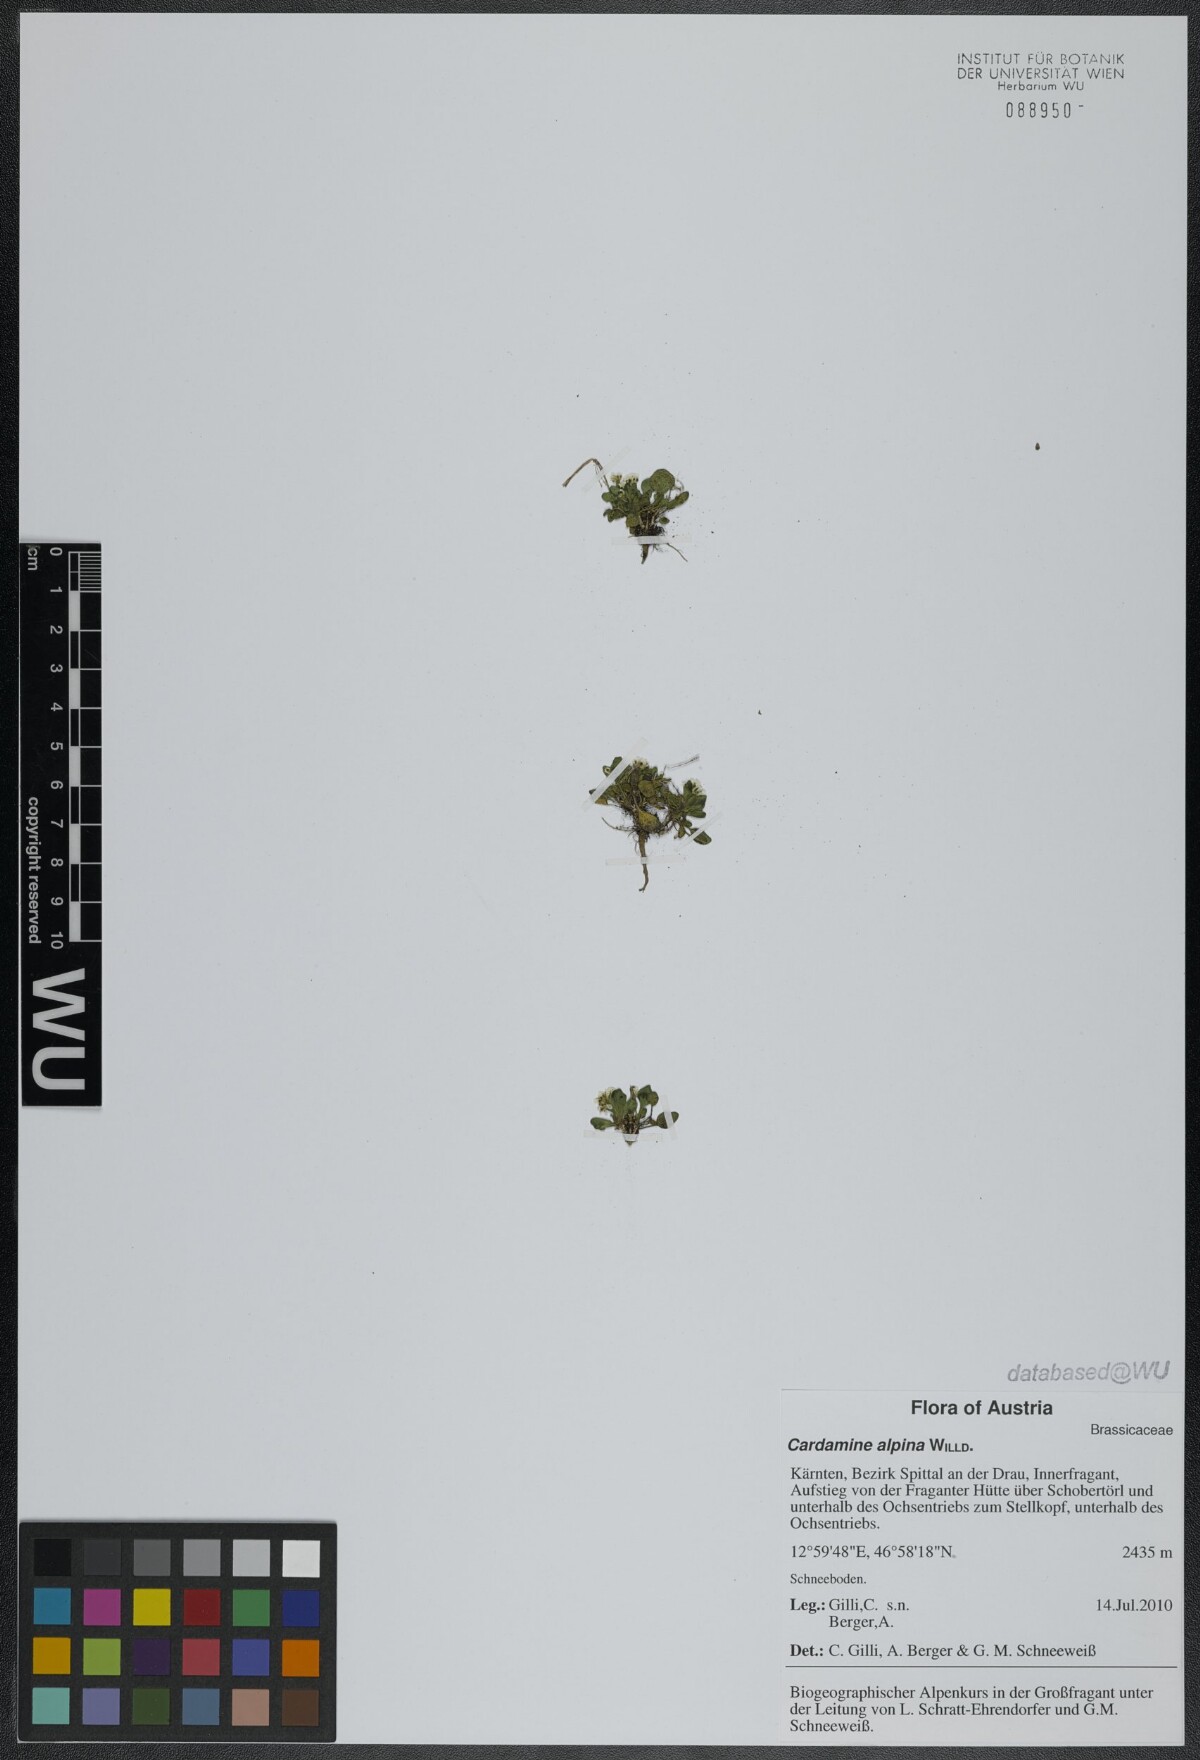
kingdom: Plantae
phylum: Tracheophyta
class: Magnoliopsida
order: Brassicales
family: Brassicaceae
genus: Cardamine
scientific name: Cardamine bellidifolia
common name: Alpine bittercress
